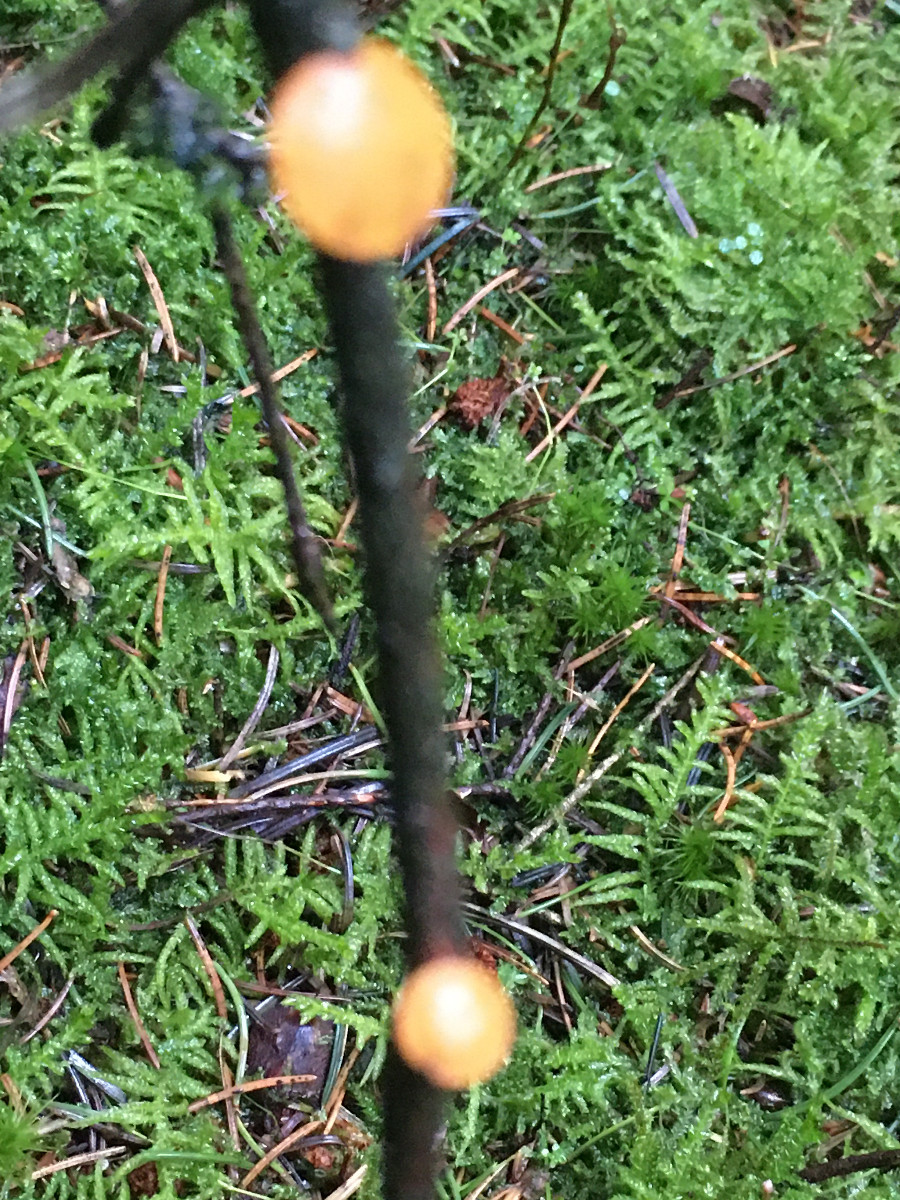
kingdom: Fungi
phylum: Ascomycota
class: Pezizomycetes
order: Pezizales
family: Sarcoscyphaceae
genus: Pithya
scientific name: Pithya vulgaris
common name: stor dukatbæger
